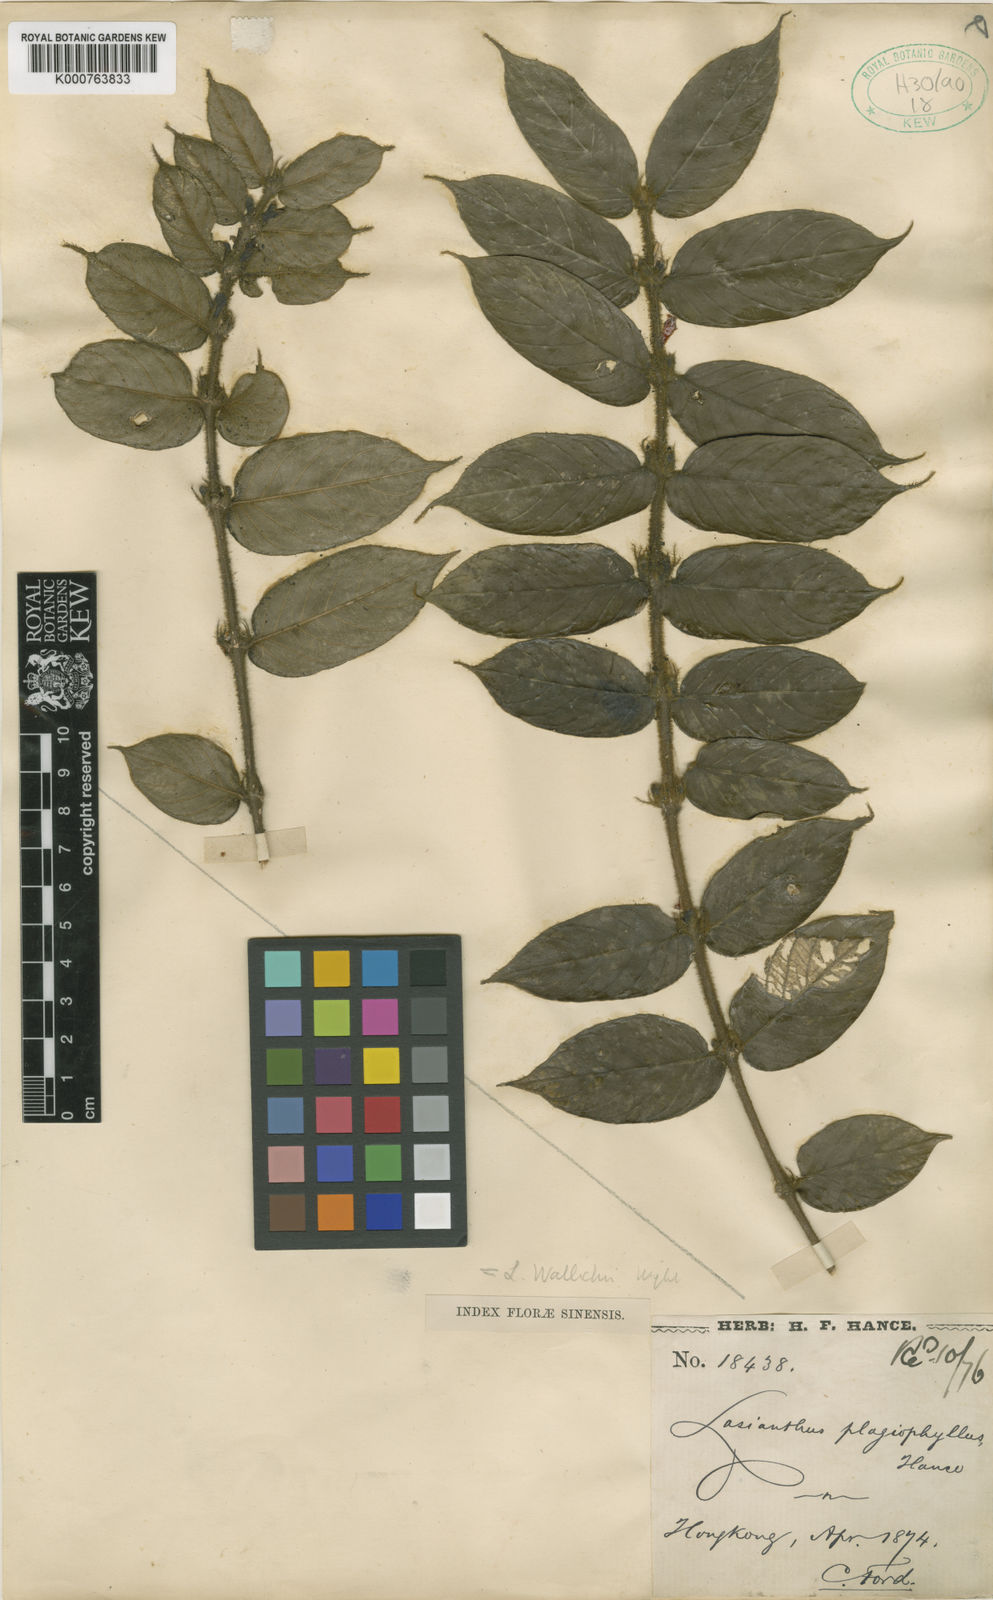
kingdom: Plantae
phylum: Tracheophyta
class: Magnoliopsida
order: Gentianales
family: Rubiaceae
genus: Lasianthus
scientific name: Lasianthus attenuatus
